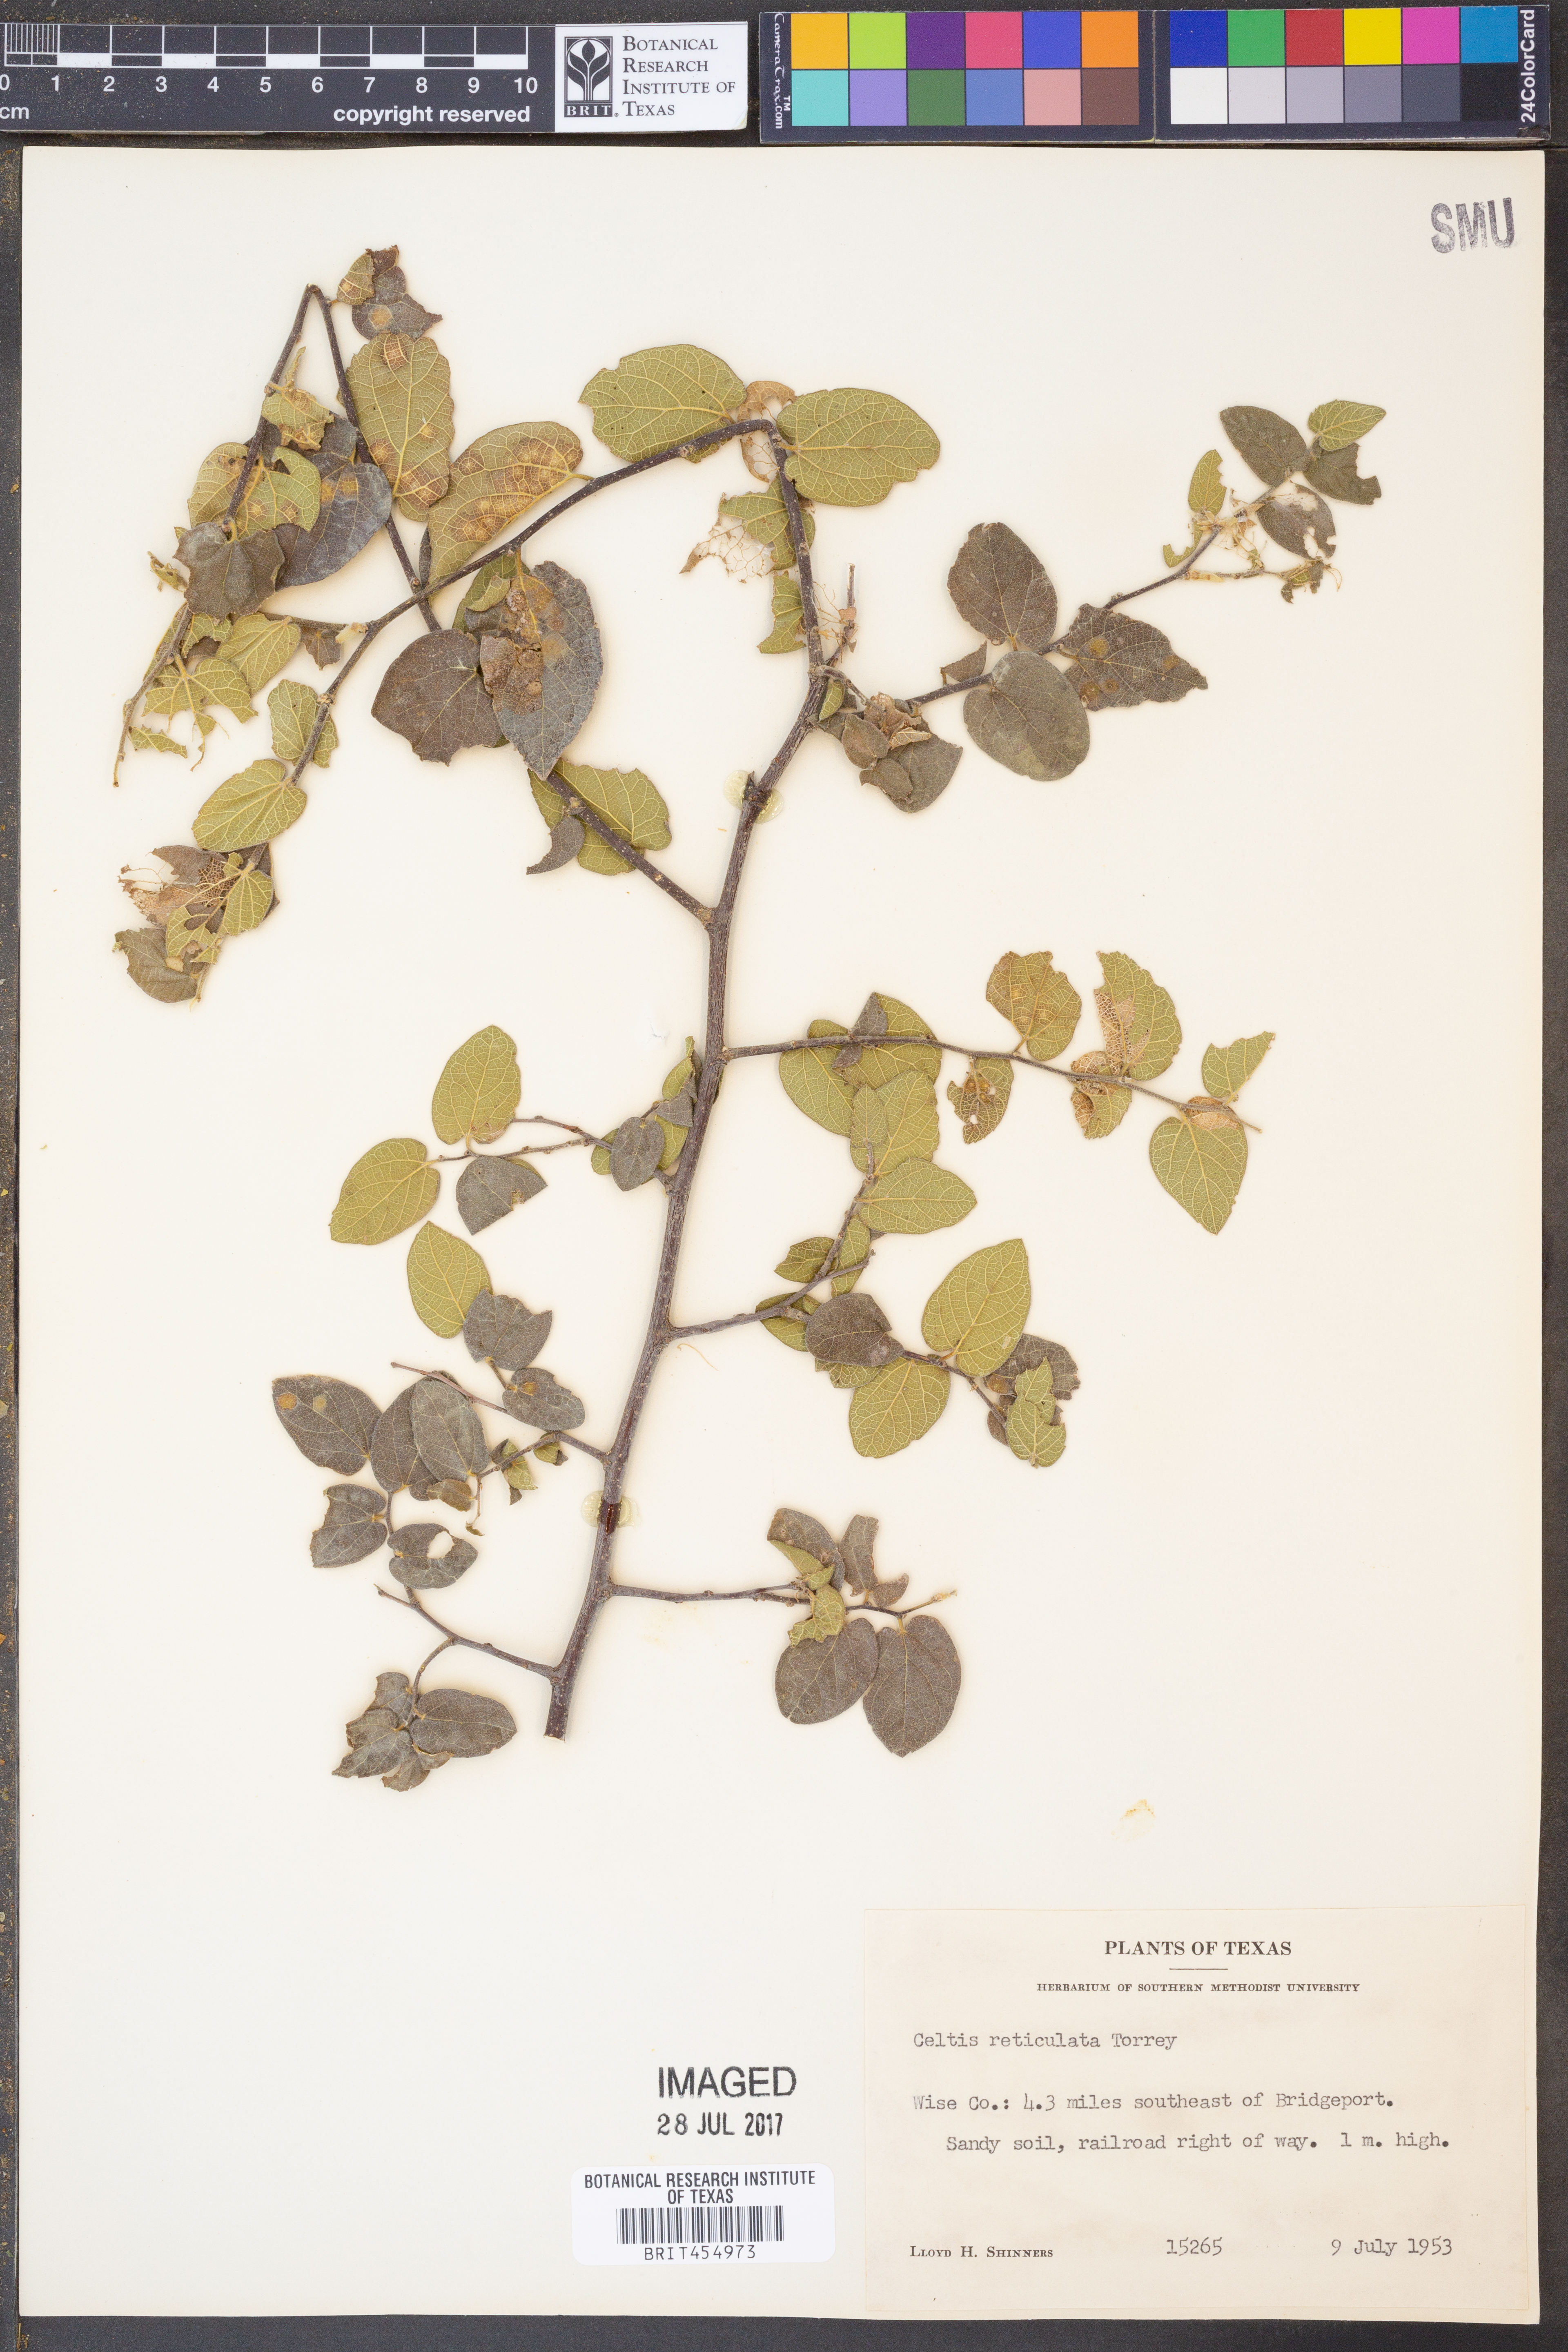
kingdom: Plantae
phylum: Tracheophyta
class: Magnoliopsida
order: Rosales
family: Cannabaceae
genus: Celtis
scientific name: Celtis reticulata
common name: Netleaf hackberry
